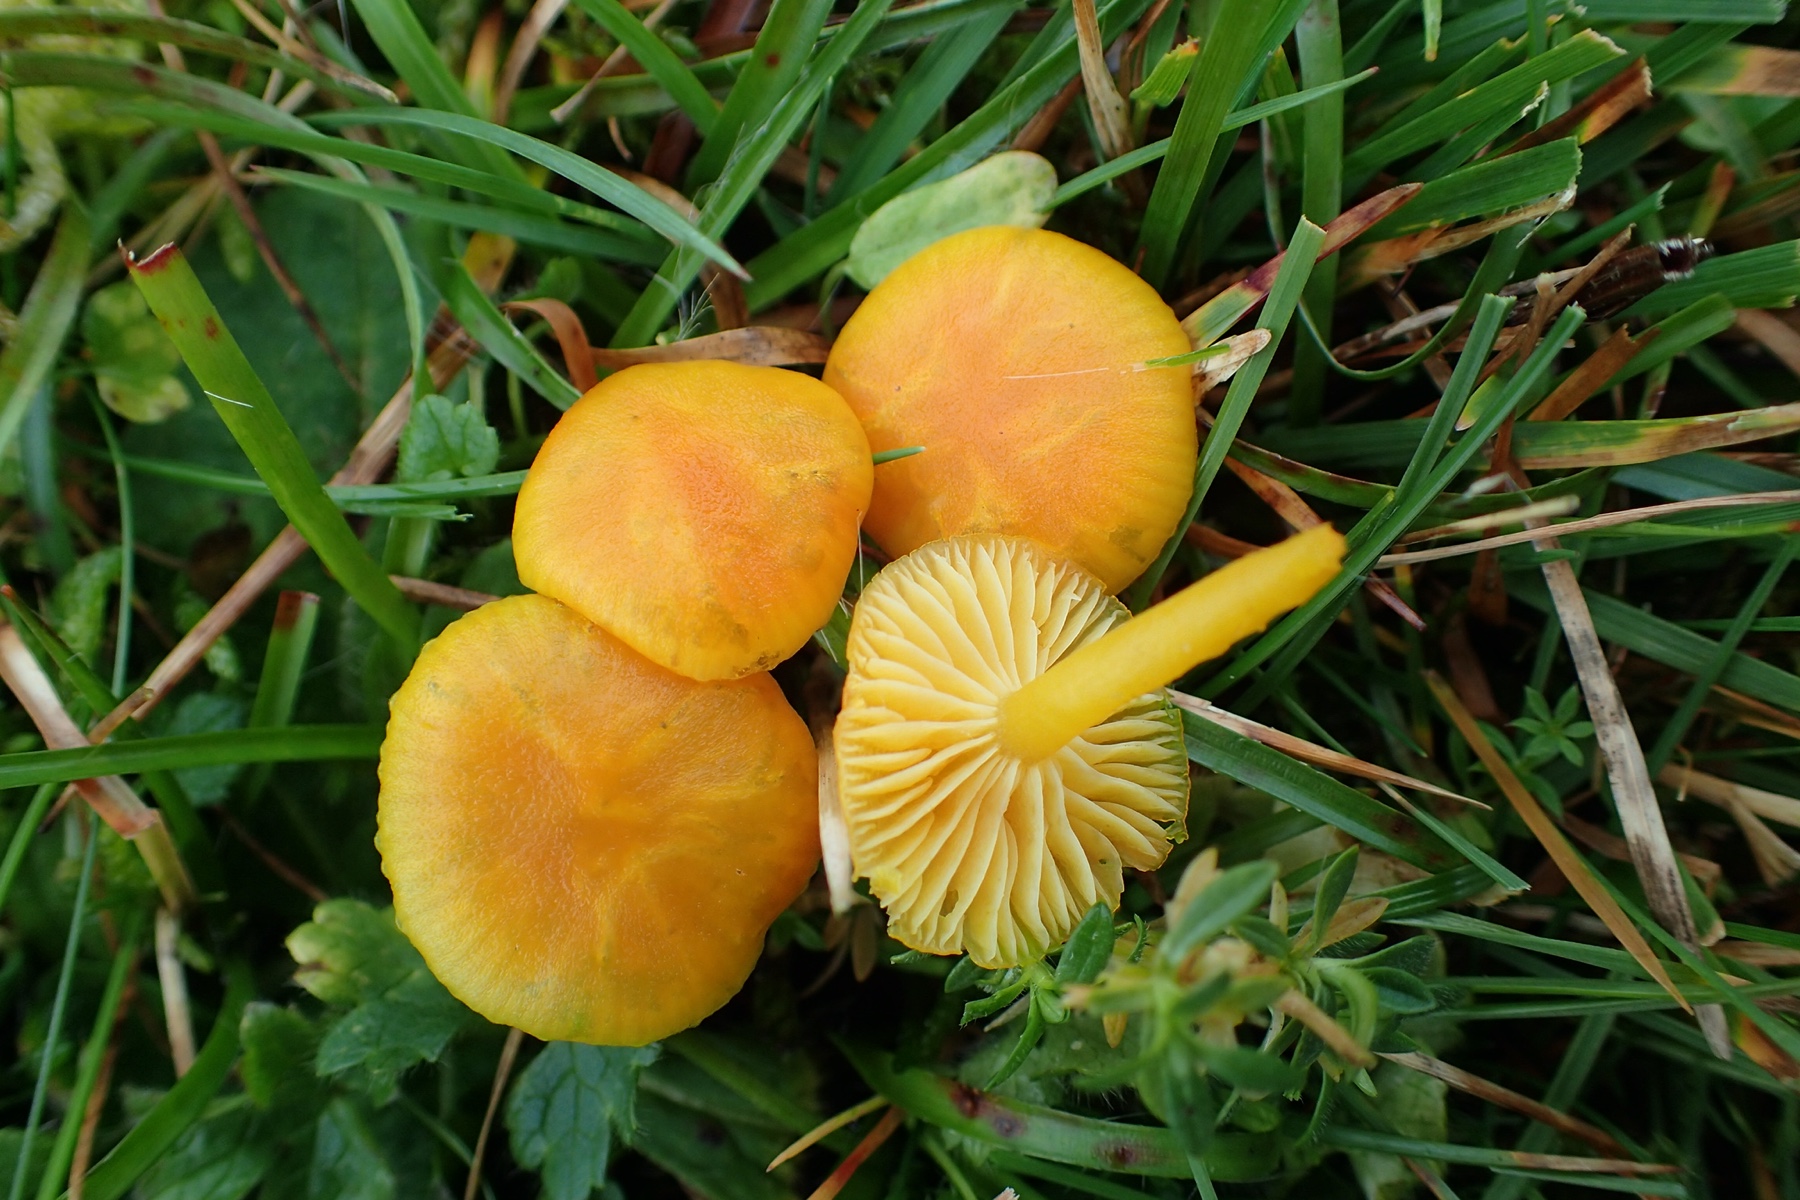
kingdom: Fungi
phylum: Basidiomycota
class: Agaricomycetes
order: Agaricales
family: Hygrophoraceae
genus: Hygrocybe
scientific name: Hygrocybe ceracea
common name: voksgul vokshat
